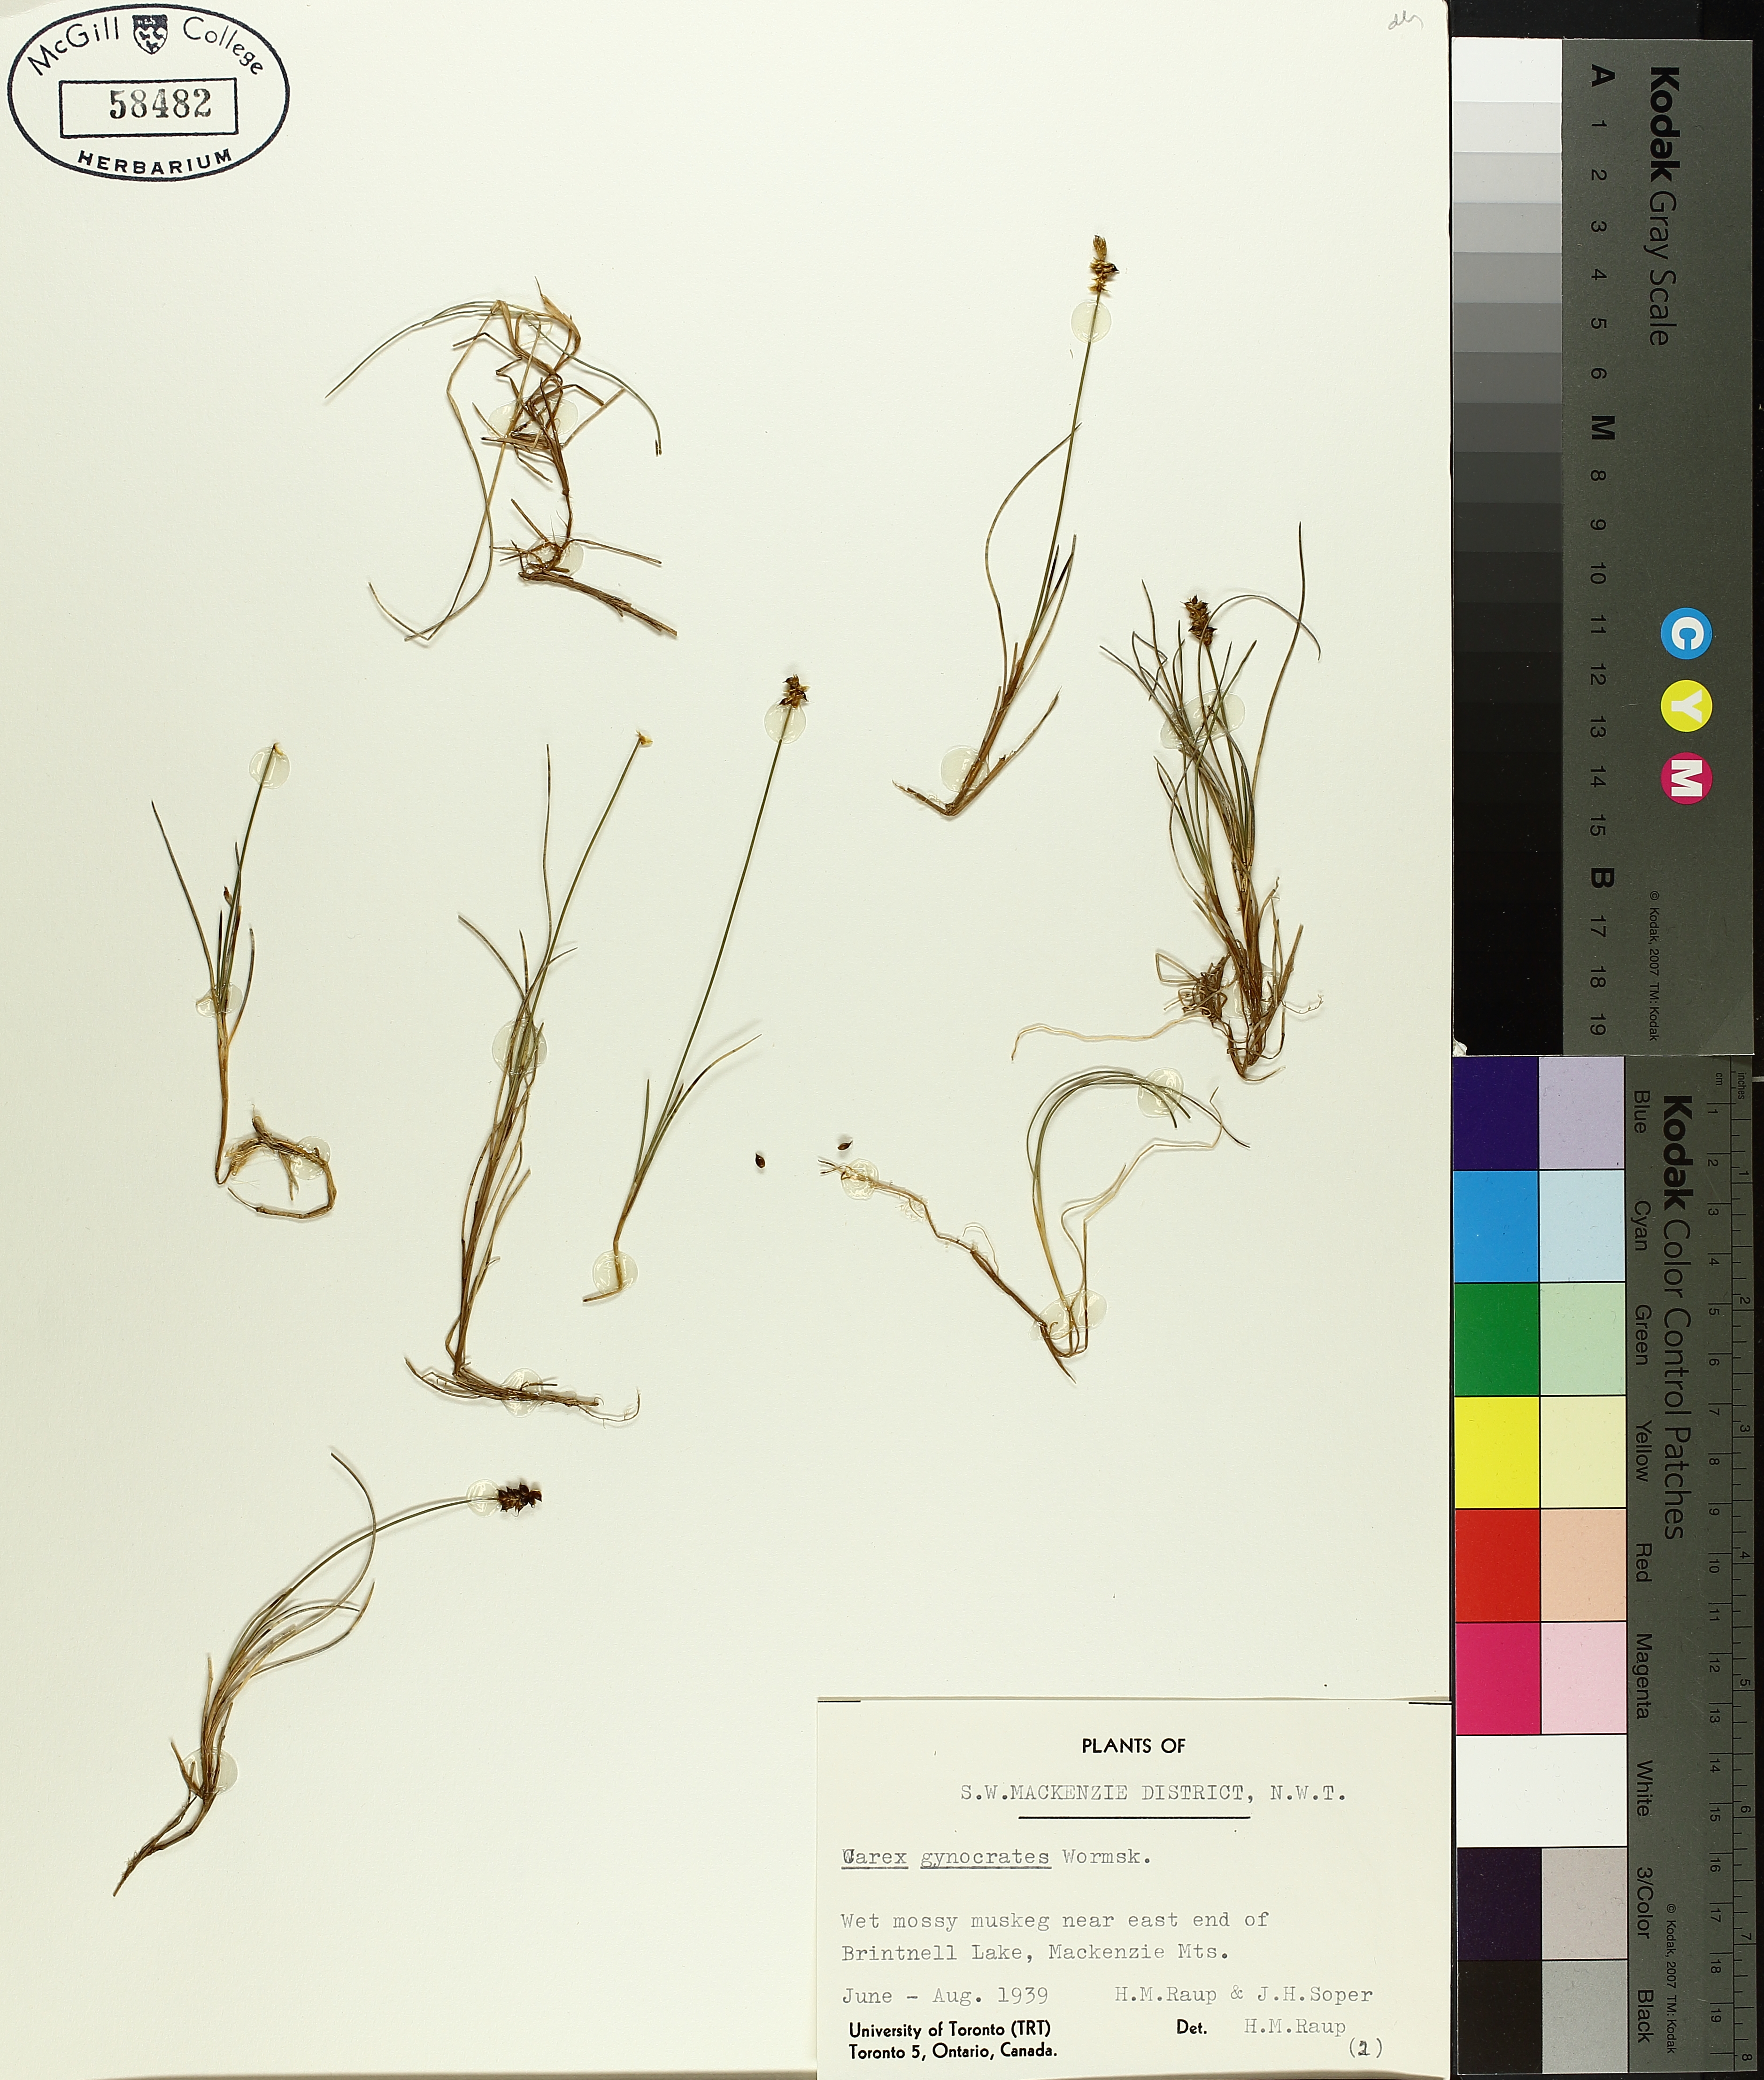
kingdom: Plantae
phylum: Tracheophyta
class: Liliopsida
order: Poales
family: Cyperaceae
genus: Carex
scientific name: Carex gynocrates
